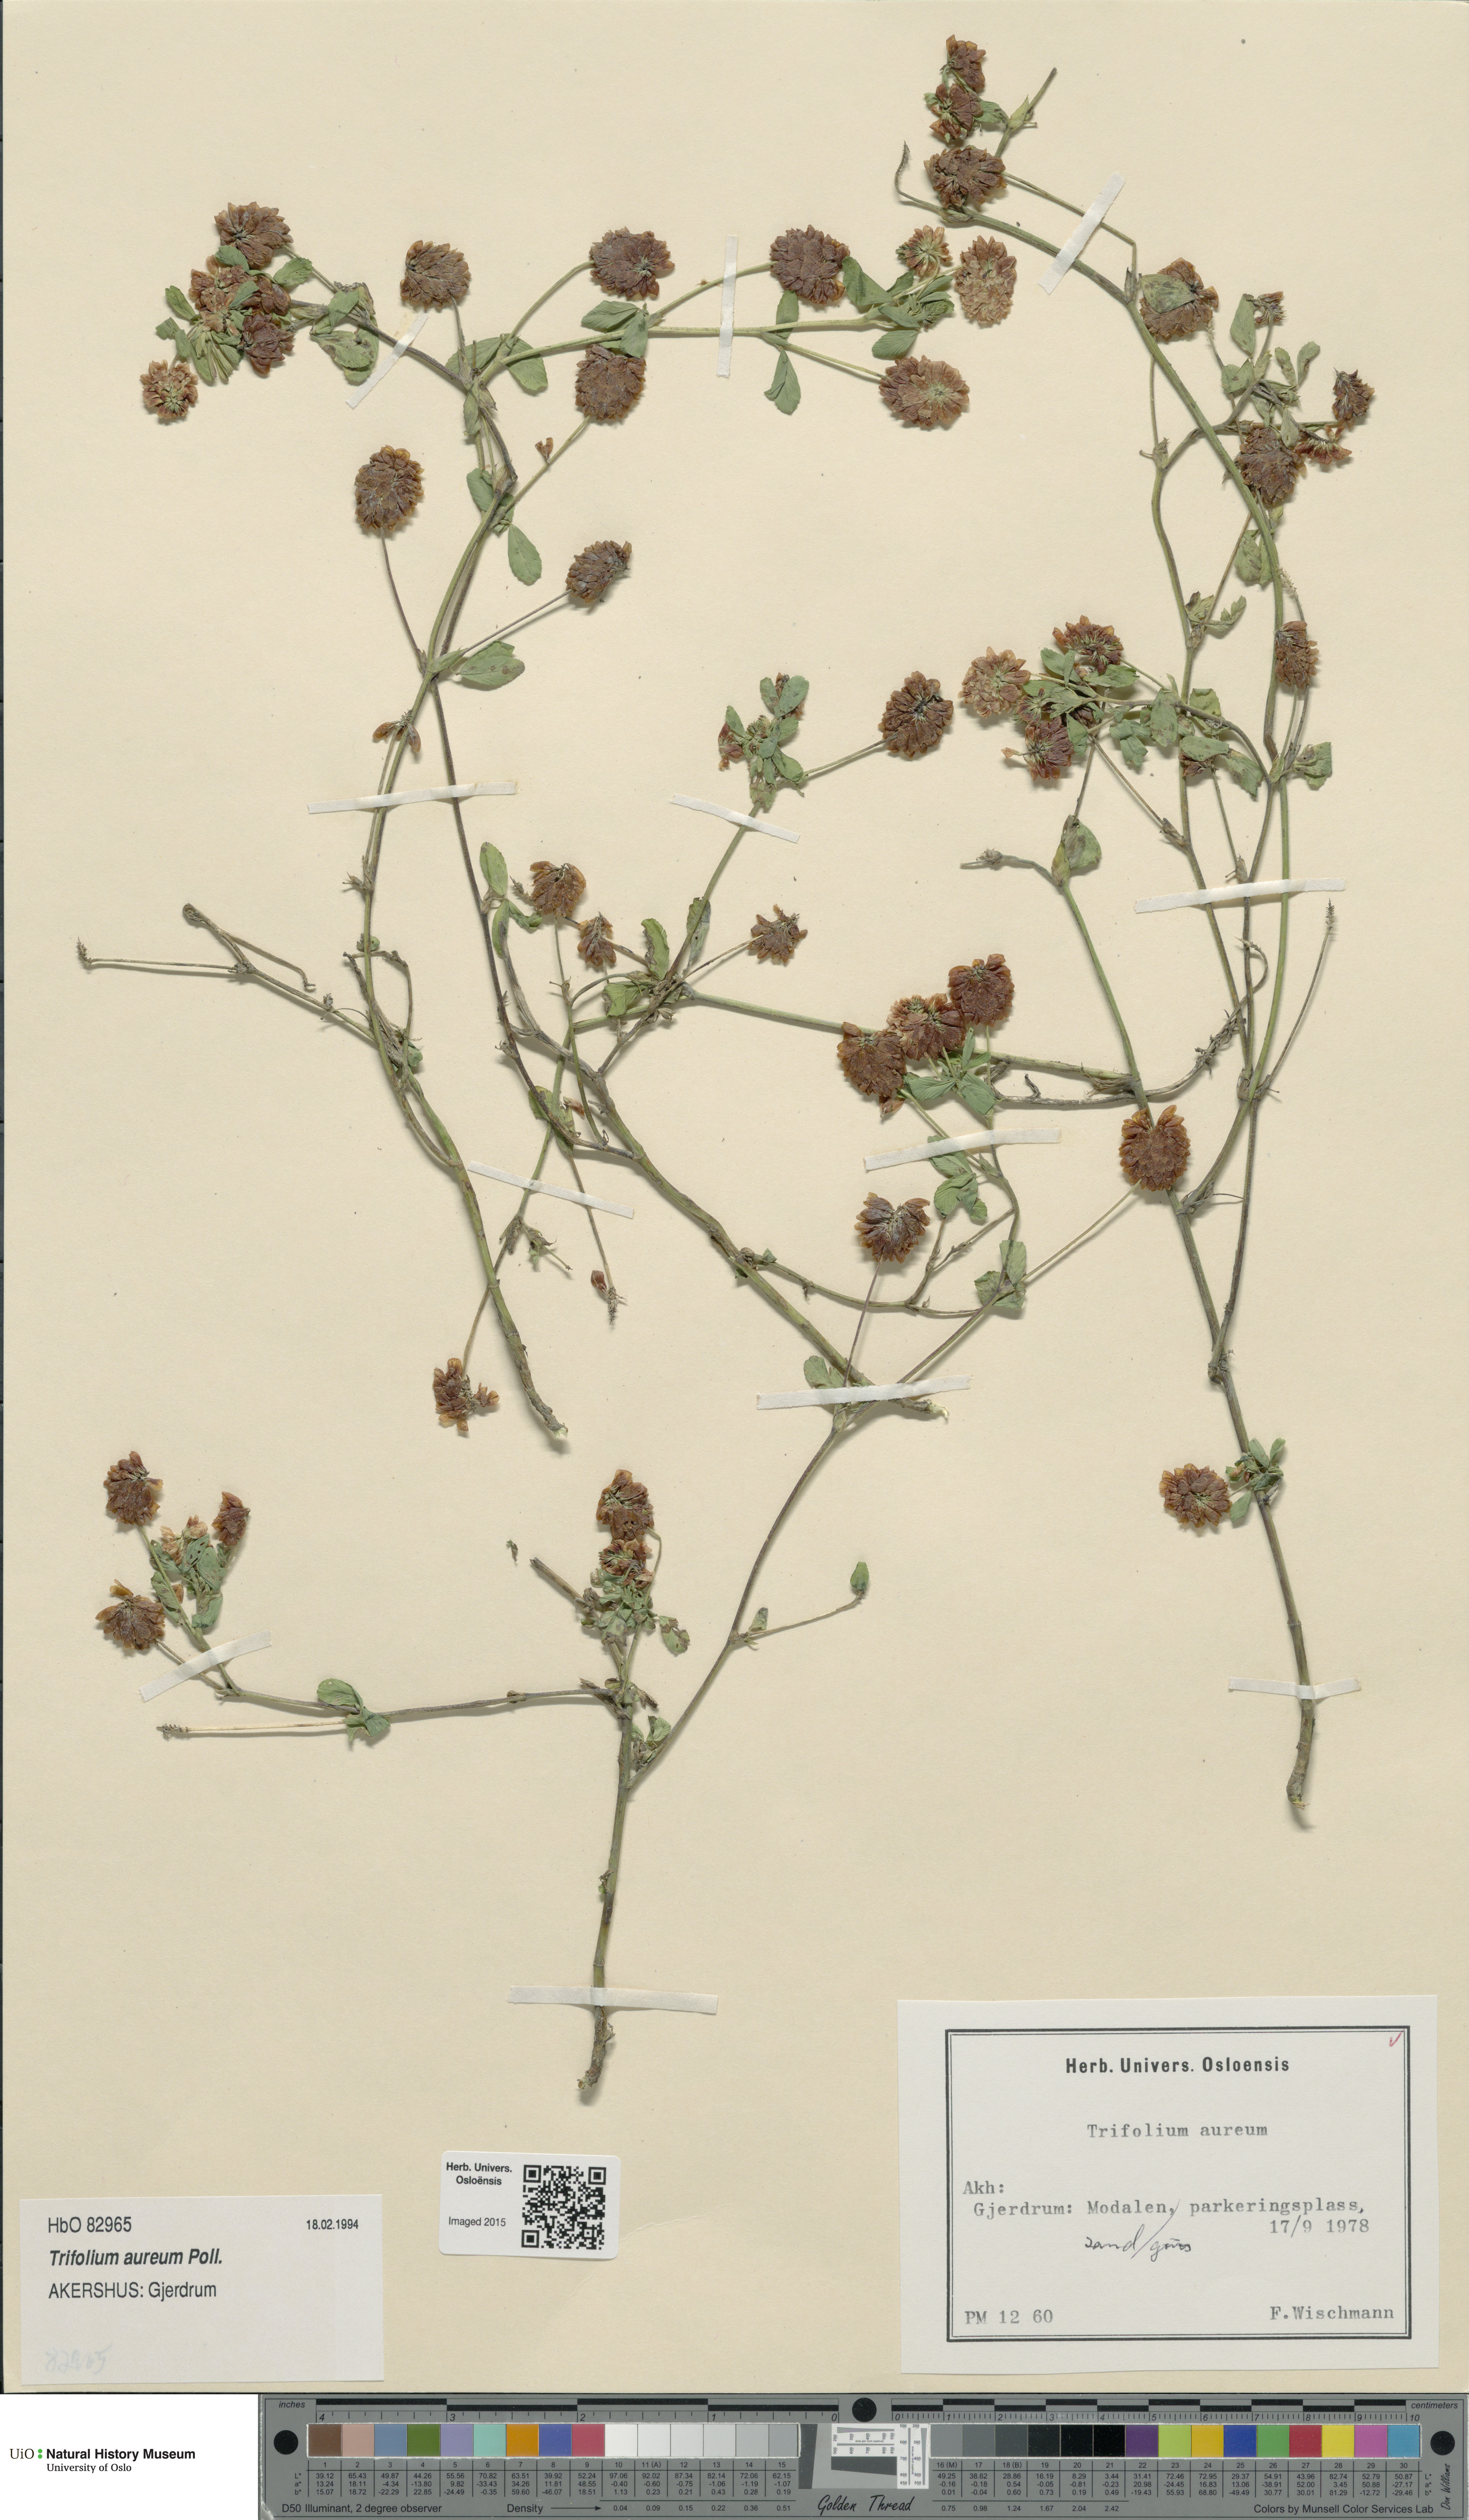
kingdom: Plantae
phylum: Tracheophyta
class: Magnoliopsida
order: Fabales
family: Fabaceae
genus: Trifolium
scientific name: Trifolium aureum
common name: Golden clover
